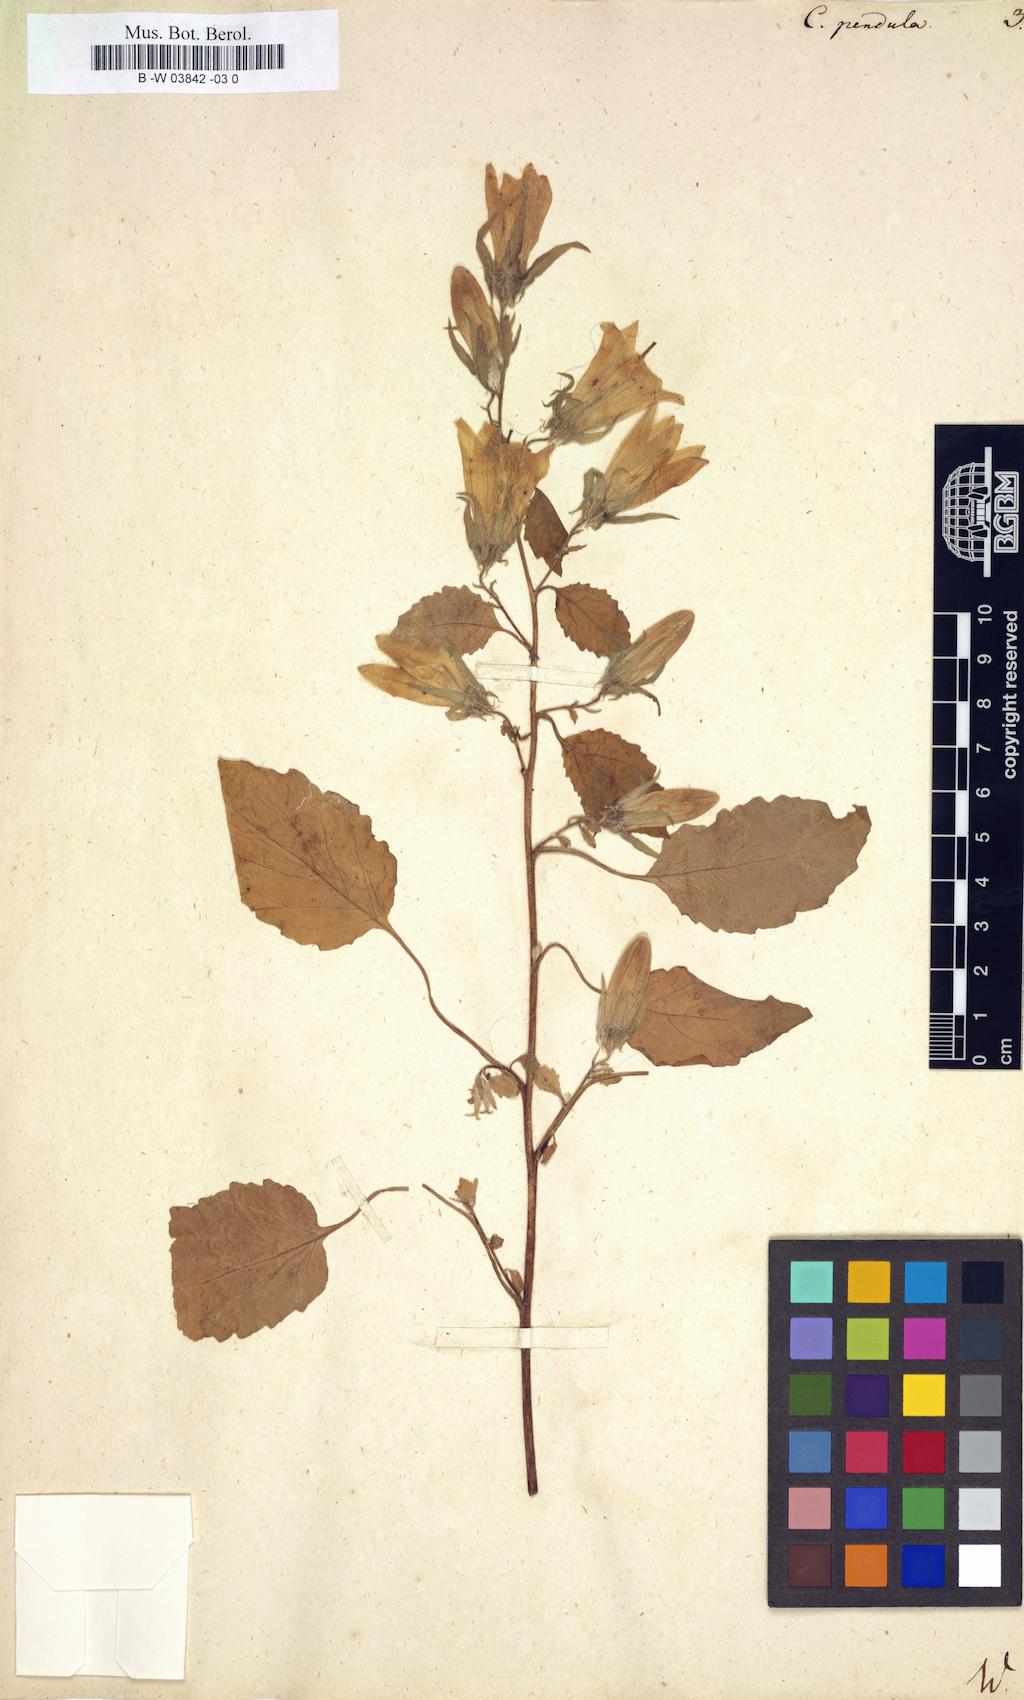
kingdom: Plantae
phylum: Tracheophyta
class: Magnoliopsida
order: Asterales
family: Campanulaceae
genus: Campanula
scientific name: Campanula pendula
